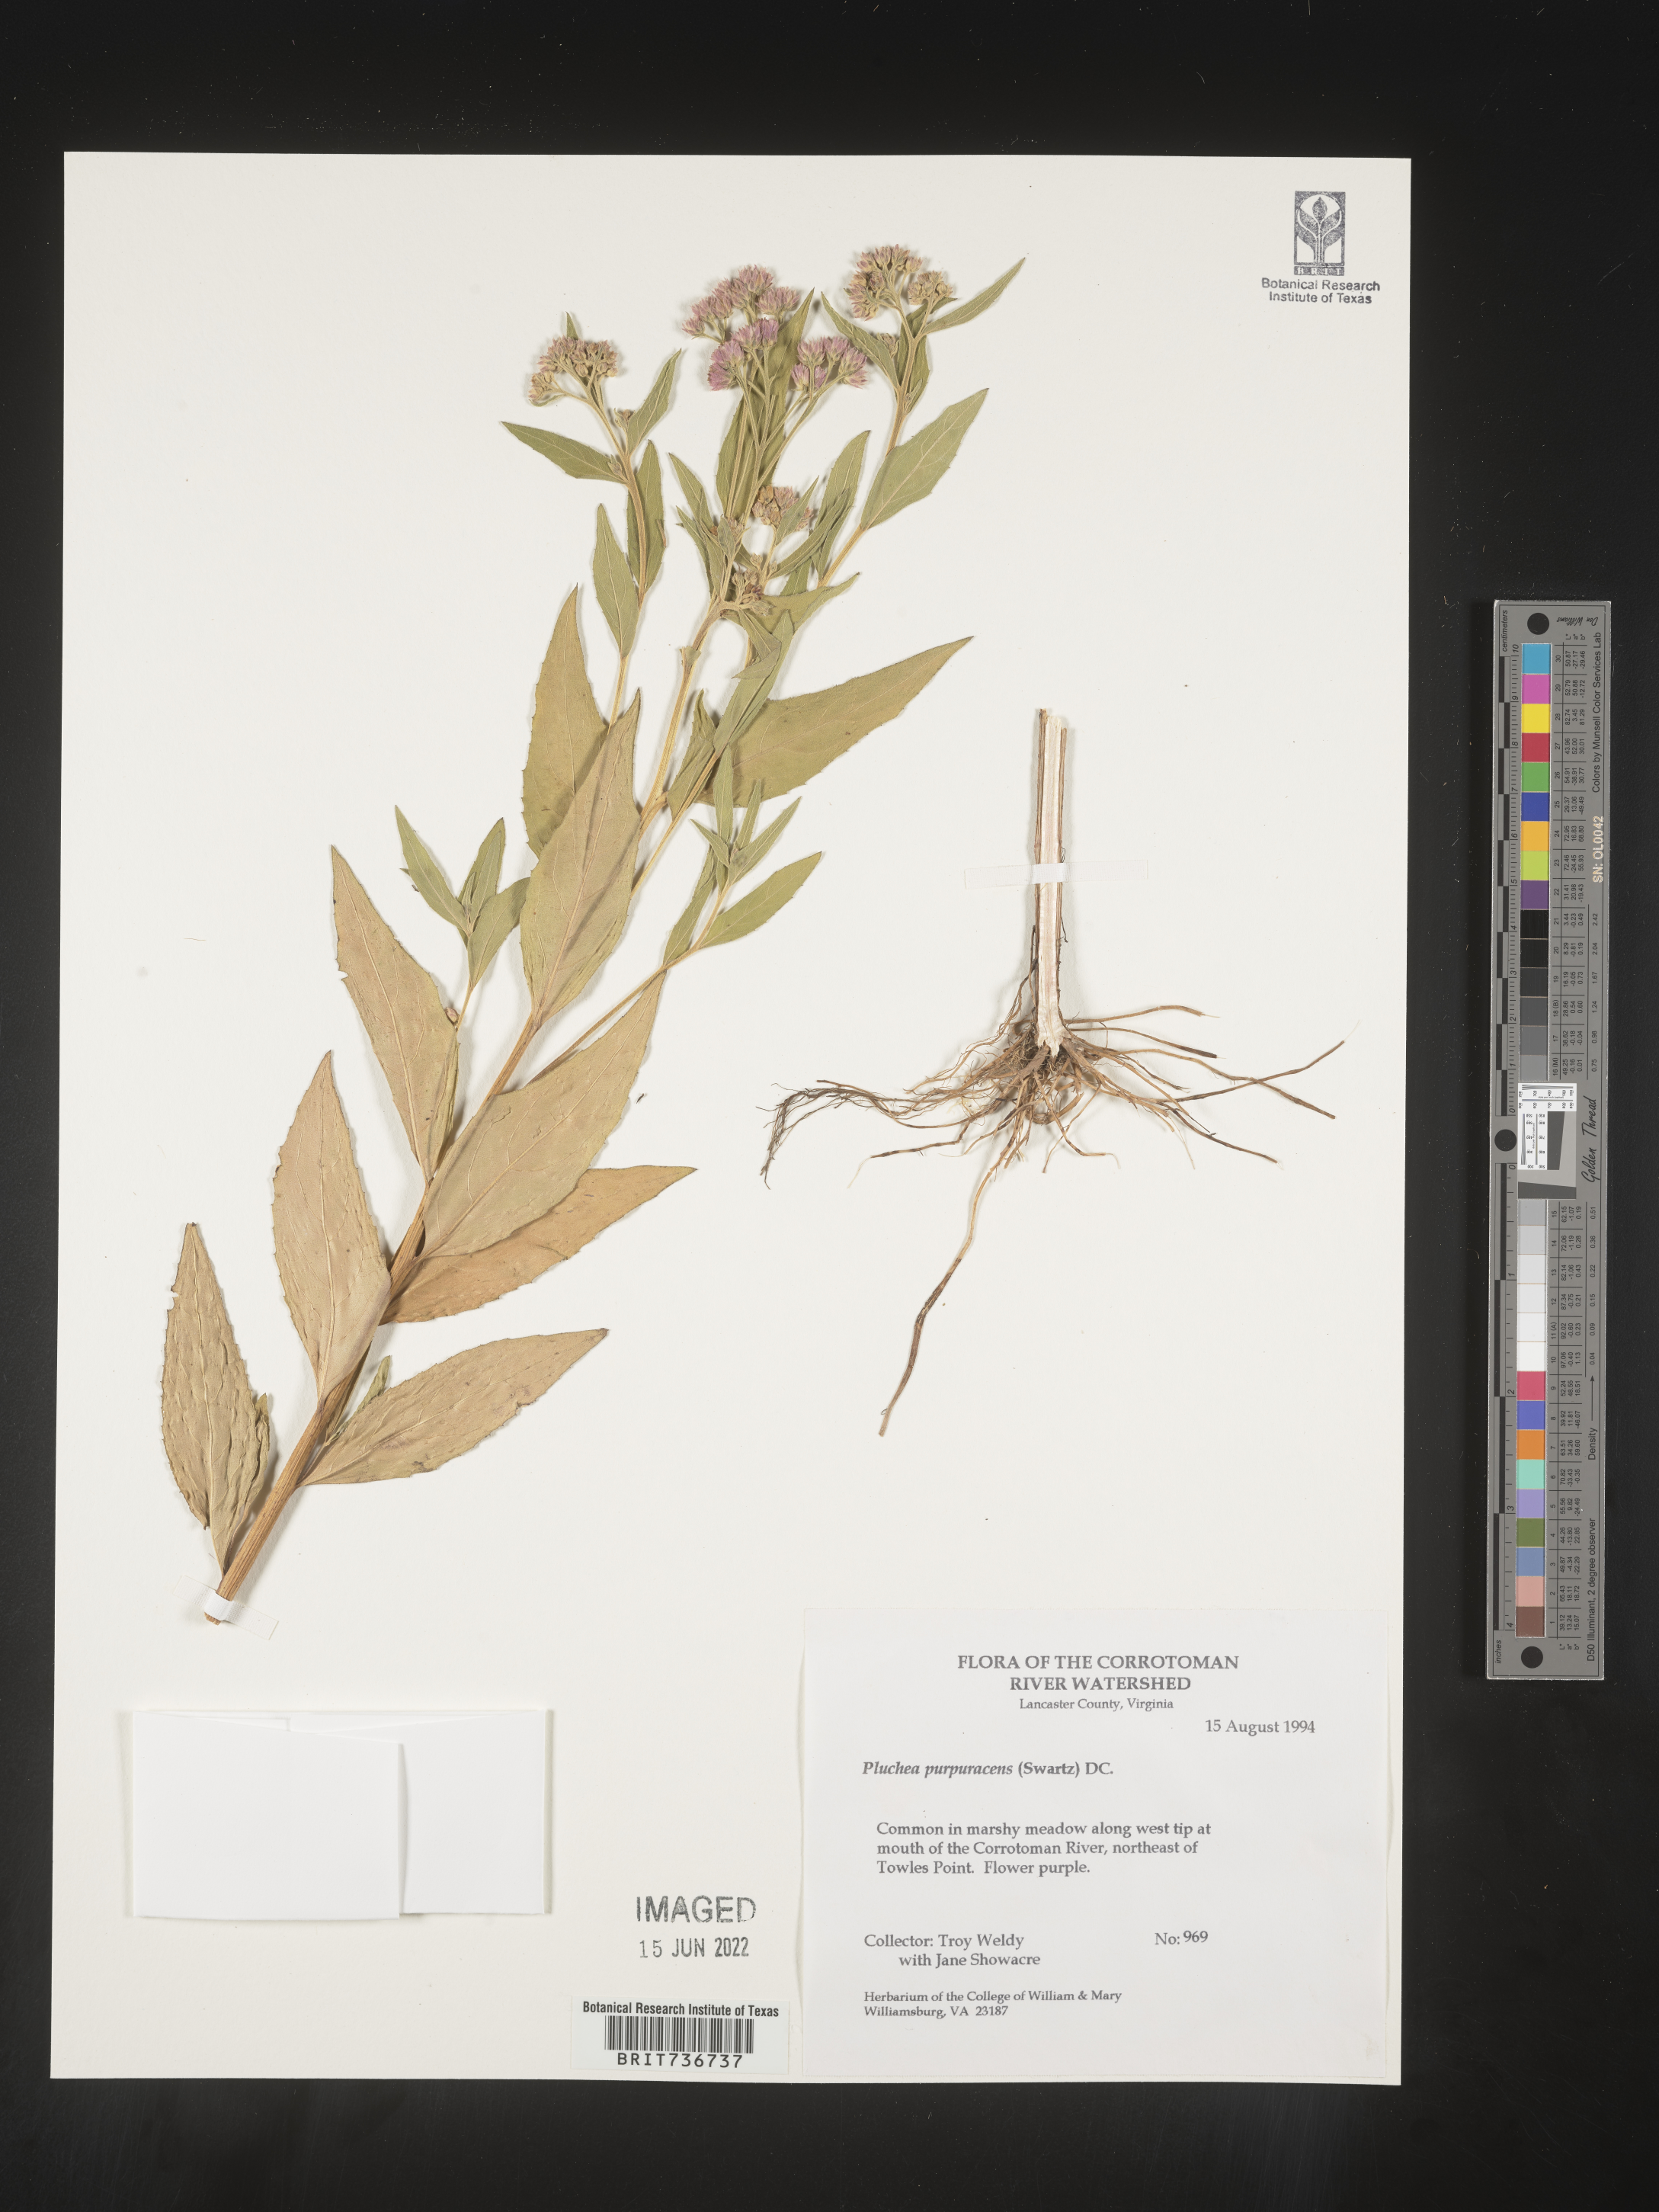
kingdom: Plantae
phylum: Tracheophyta
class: Magnoliopsida
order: Asterales
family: Asteraceae
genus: Pluchea
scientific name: Pluchea odorata
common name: Saltmarsh fleabane
